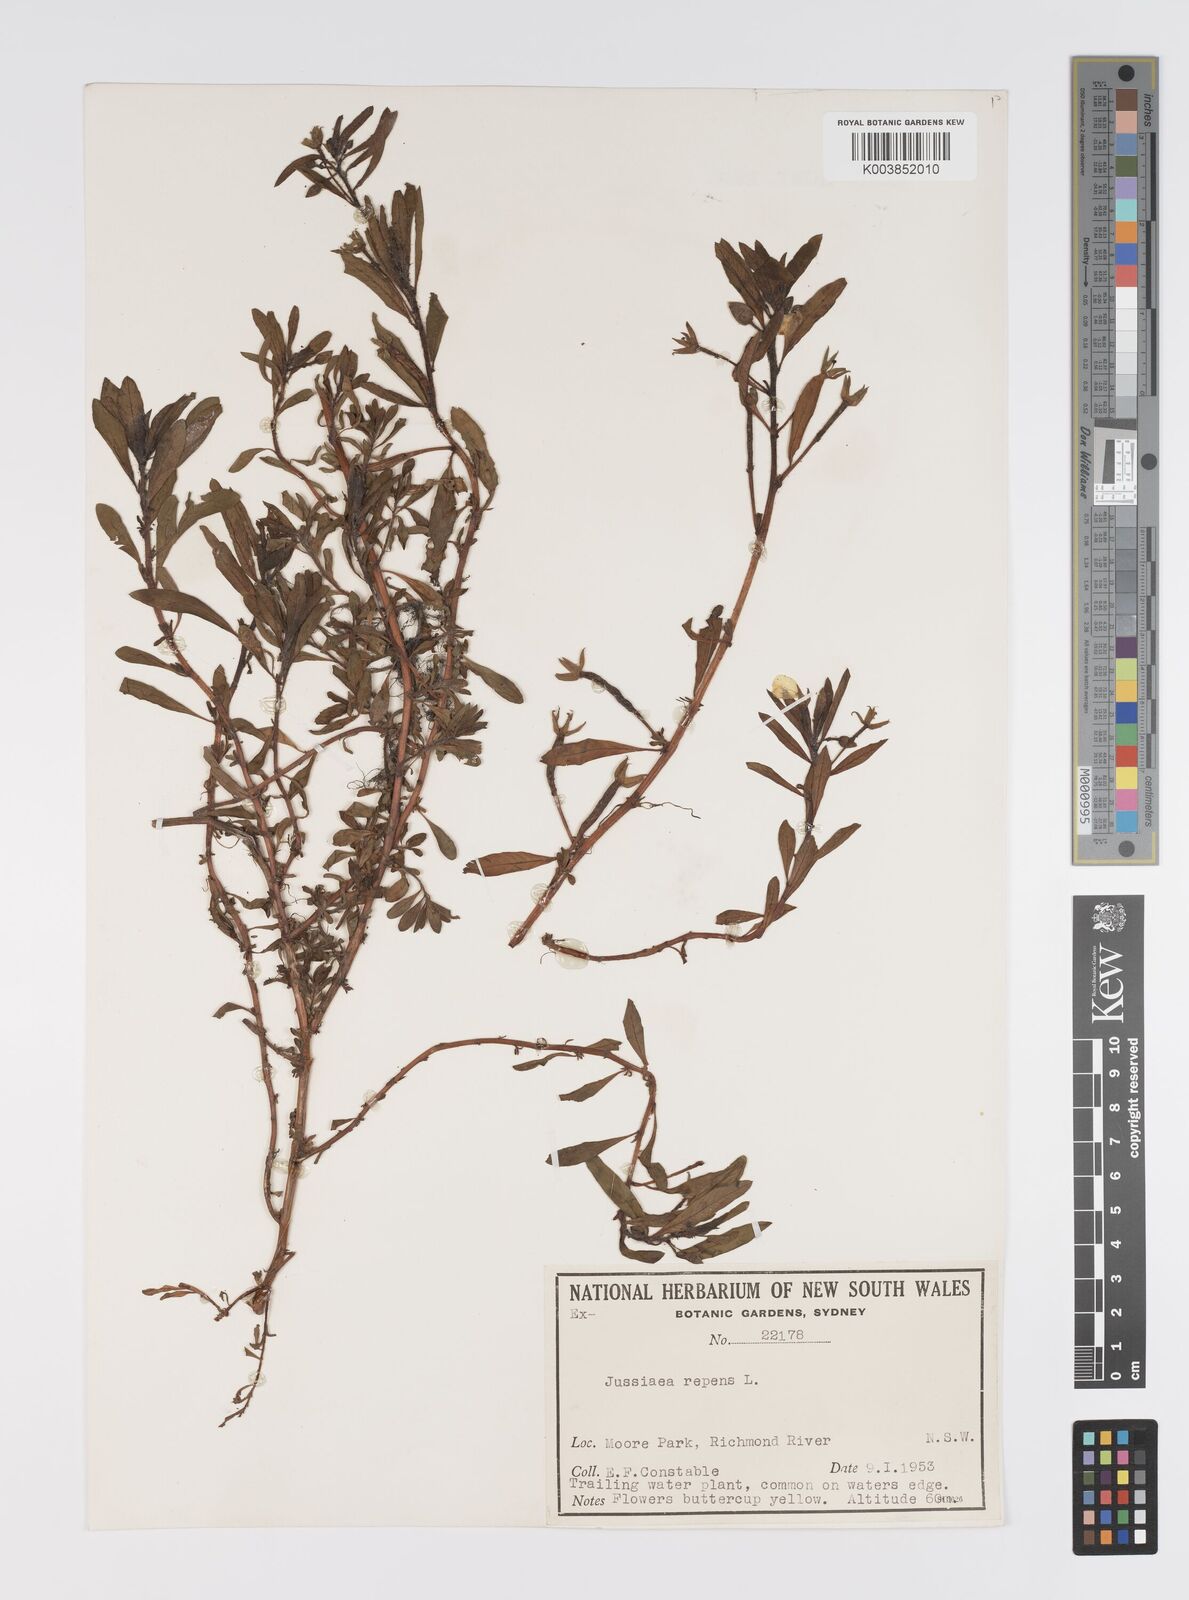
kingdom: Plantae
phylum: Tracheophyta
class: Magnoliopsida
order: Myrtales
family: Onagraceae
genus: Ludwigia
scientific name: Ludwigia peploides
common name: Floating primrose-willow
